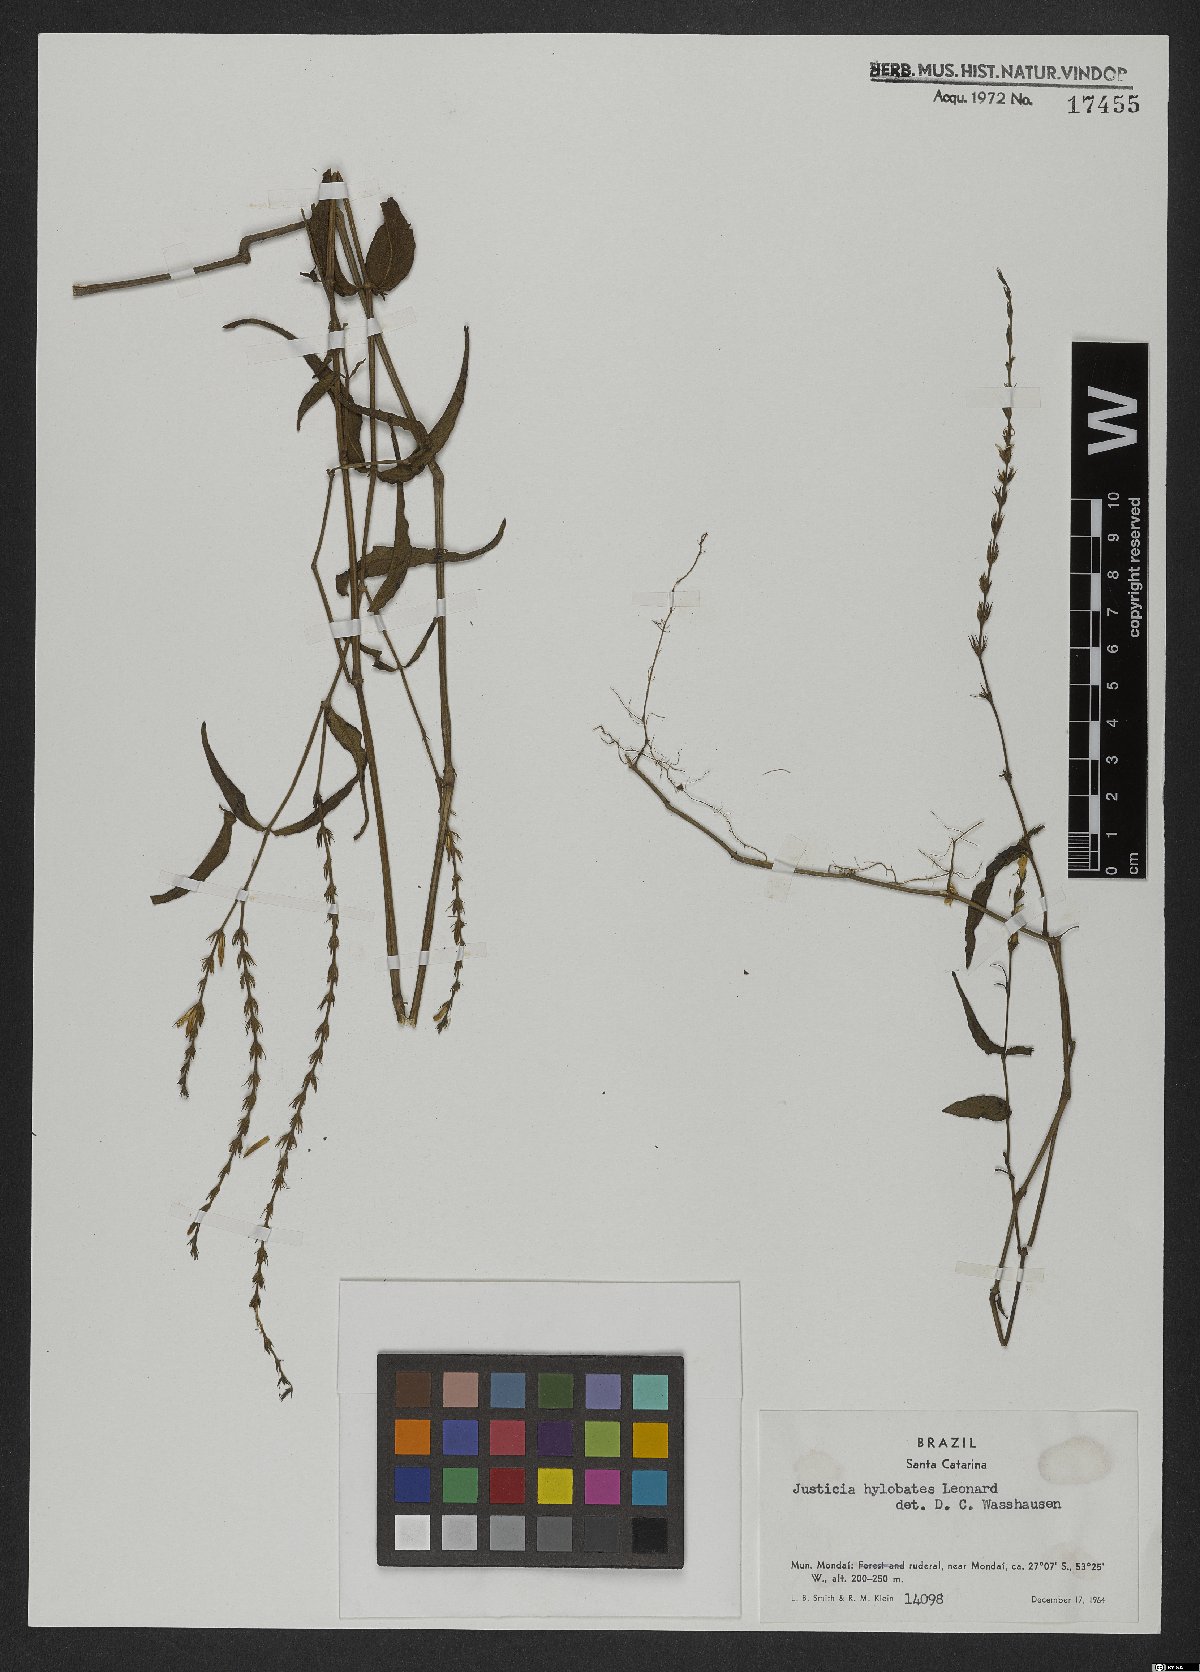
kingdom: Plantae
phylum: Tracheophyta
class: Magnoliopsida
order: Lamiales
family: Acanthaceae
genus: Justicia
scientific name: Justicia yhuensis
